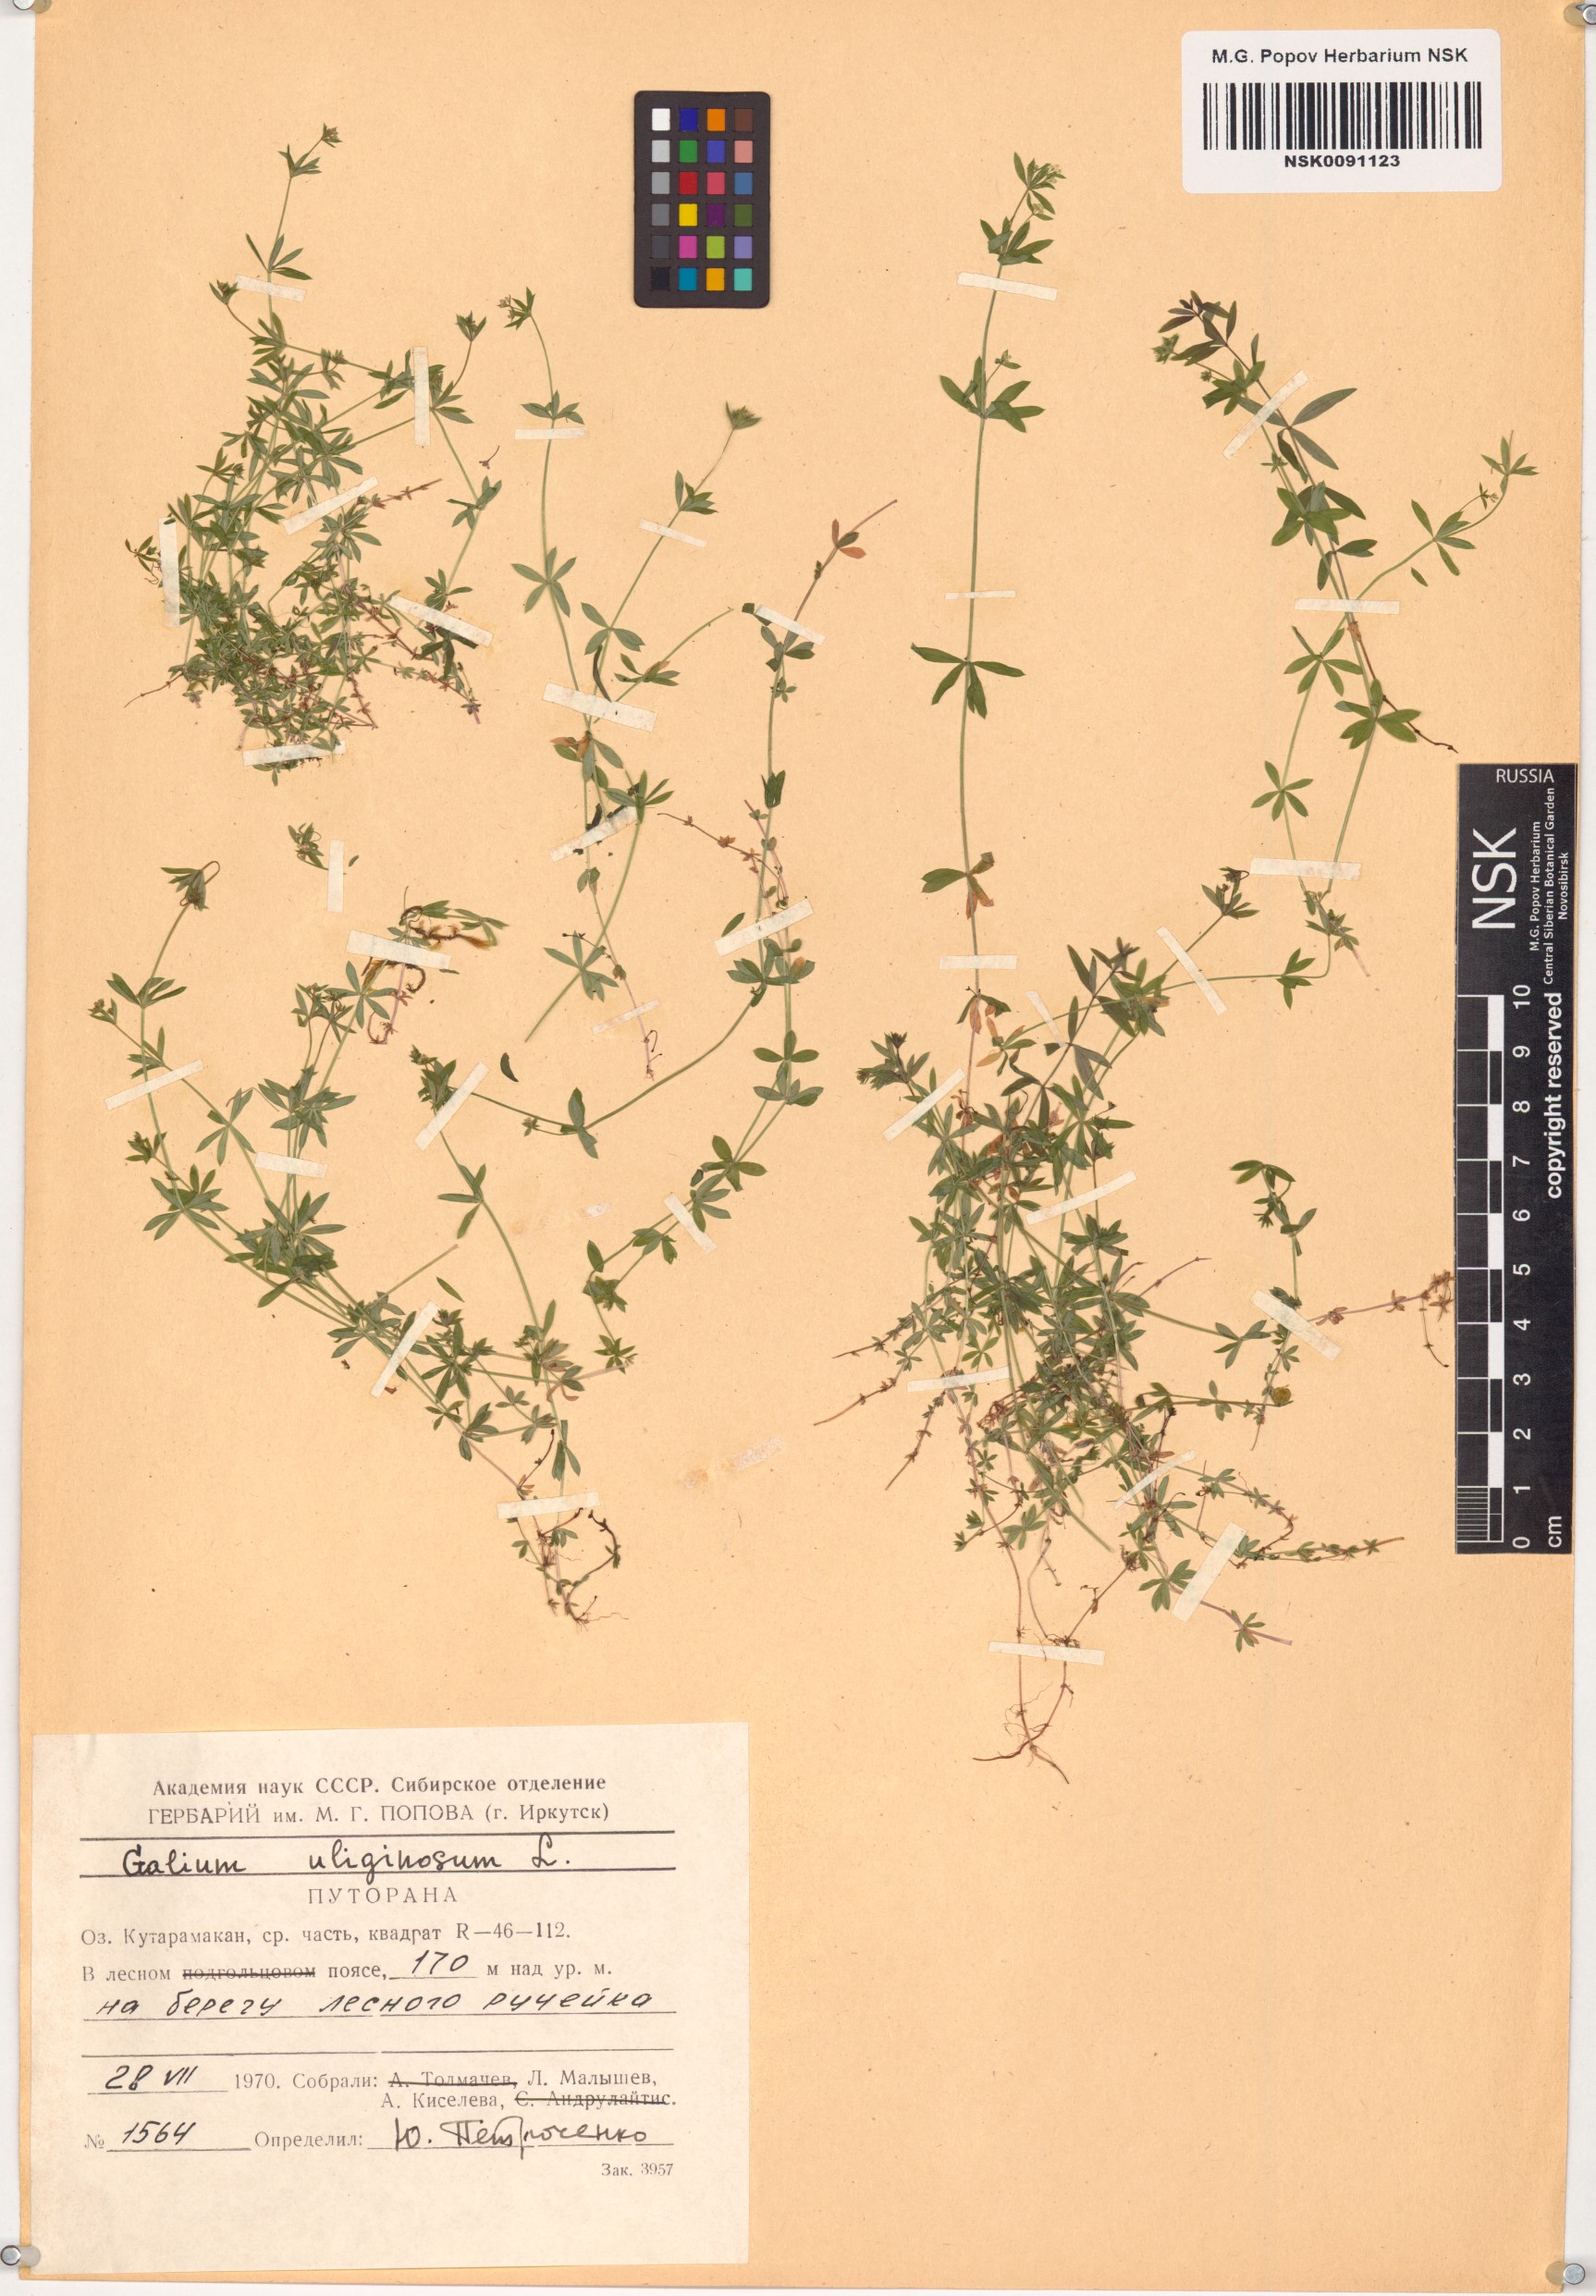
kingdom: Plantae
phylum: Tracheophyta
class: Magnoliopsida
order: Gentianales
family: Rubiaceae
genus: Galium
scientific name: Galium uliginosum
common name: Fen bedstraw
